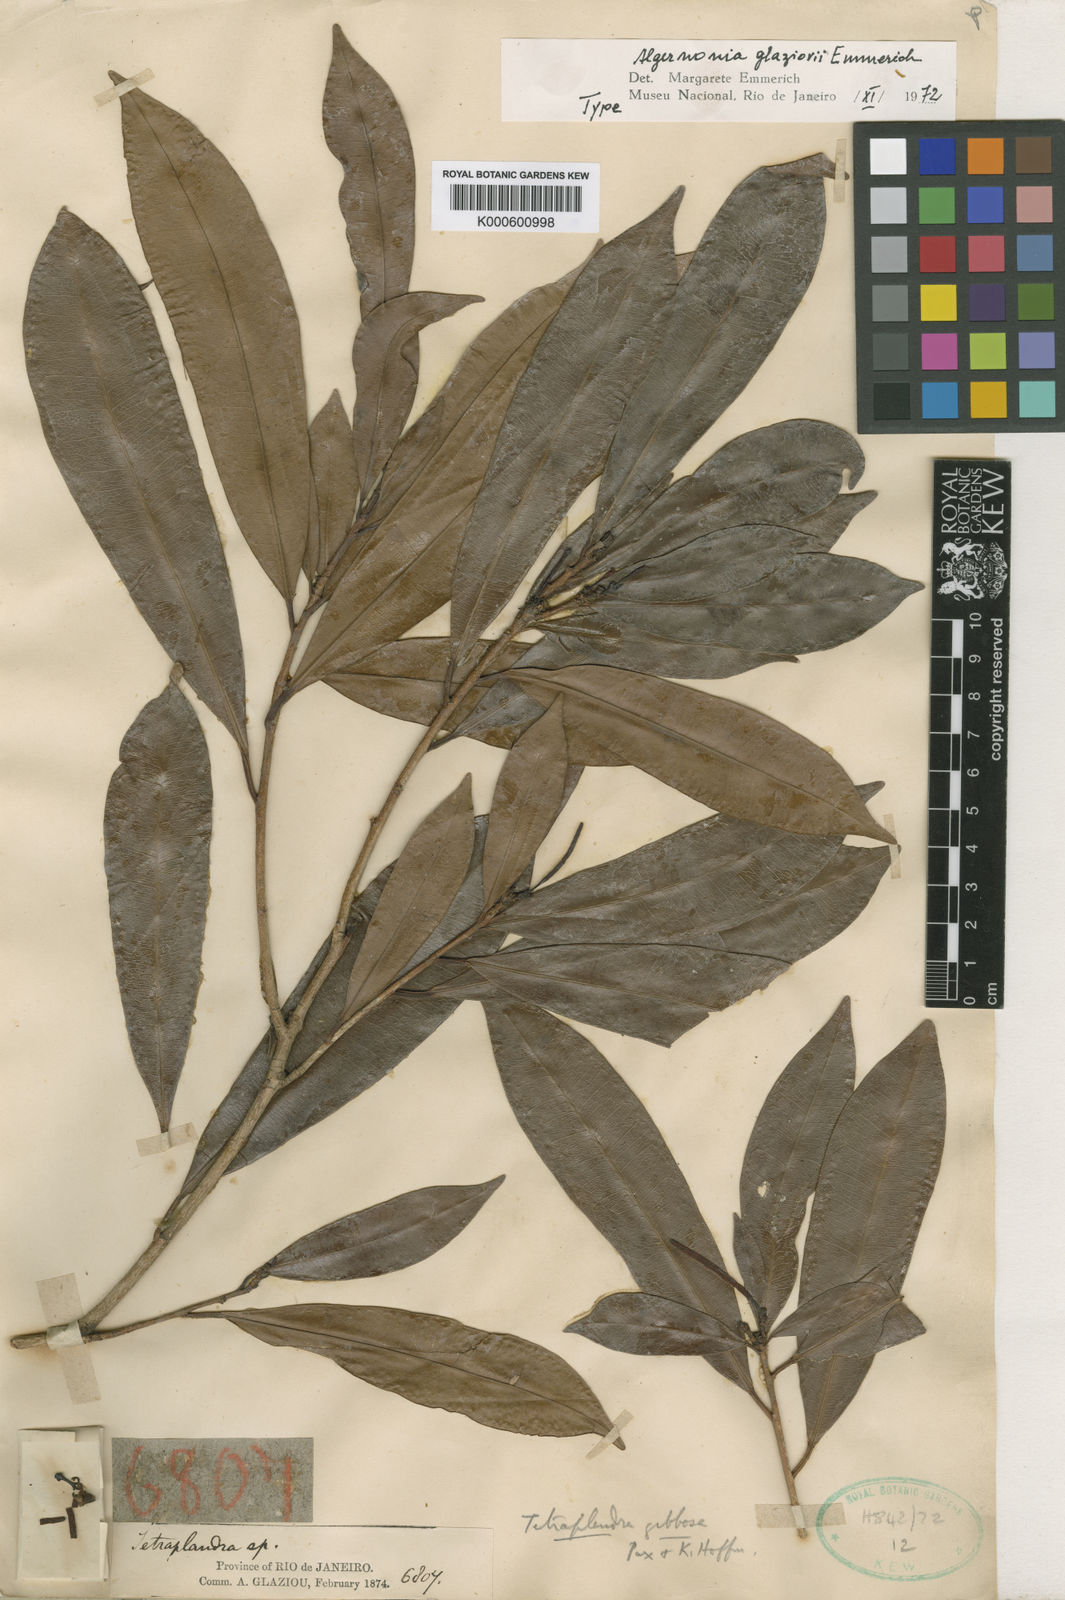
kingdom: Plantae
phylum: Tracheophyta
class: Magnoliopsida
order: Malpighiales
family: Euphorbiaceae
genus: Algernonia
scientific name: Algernonia glazioui
